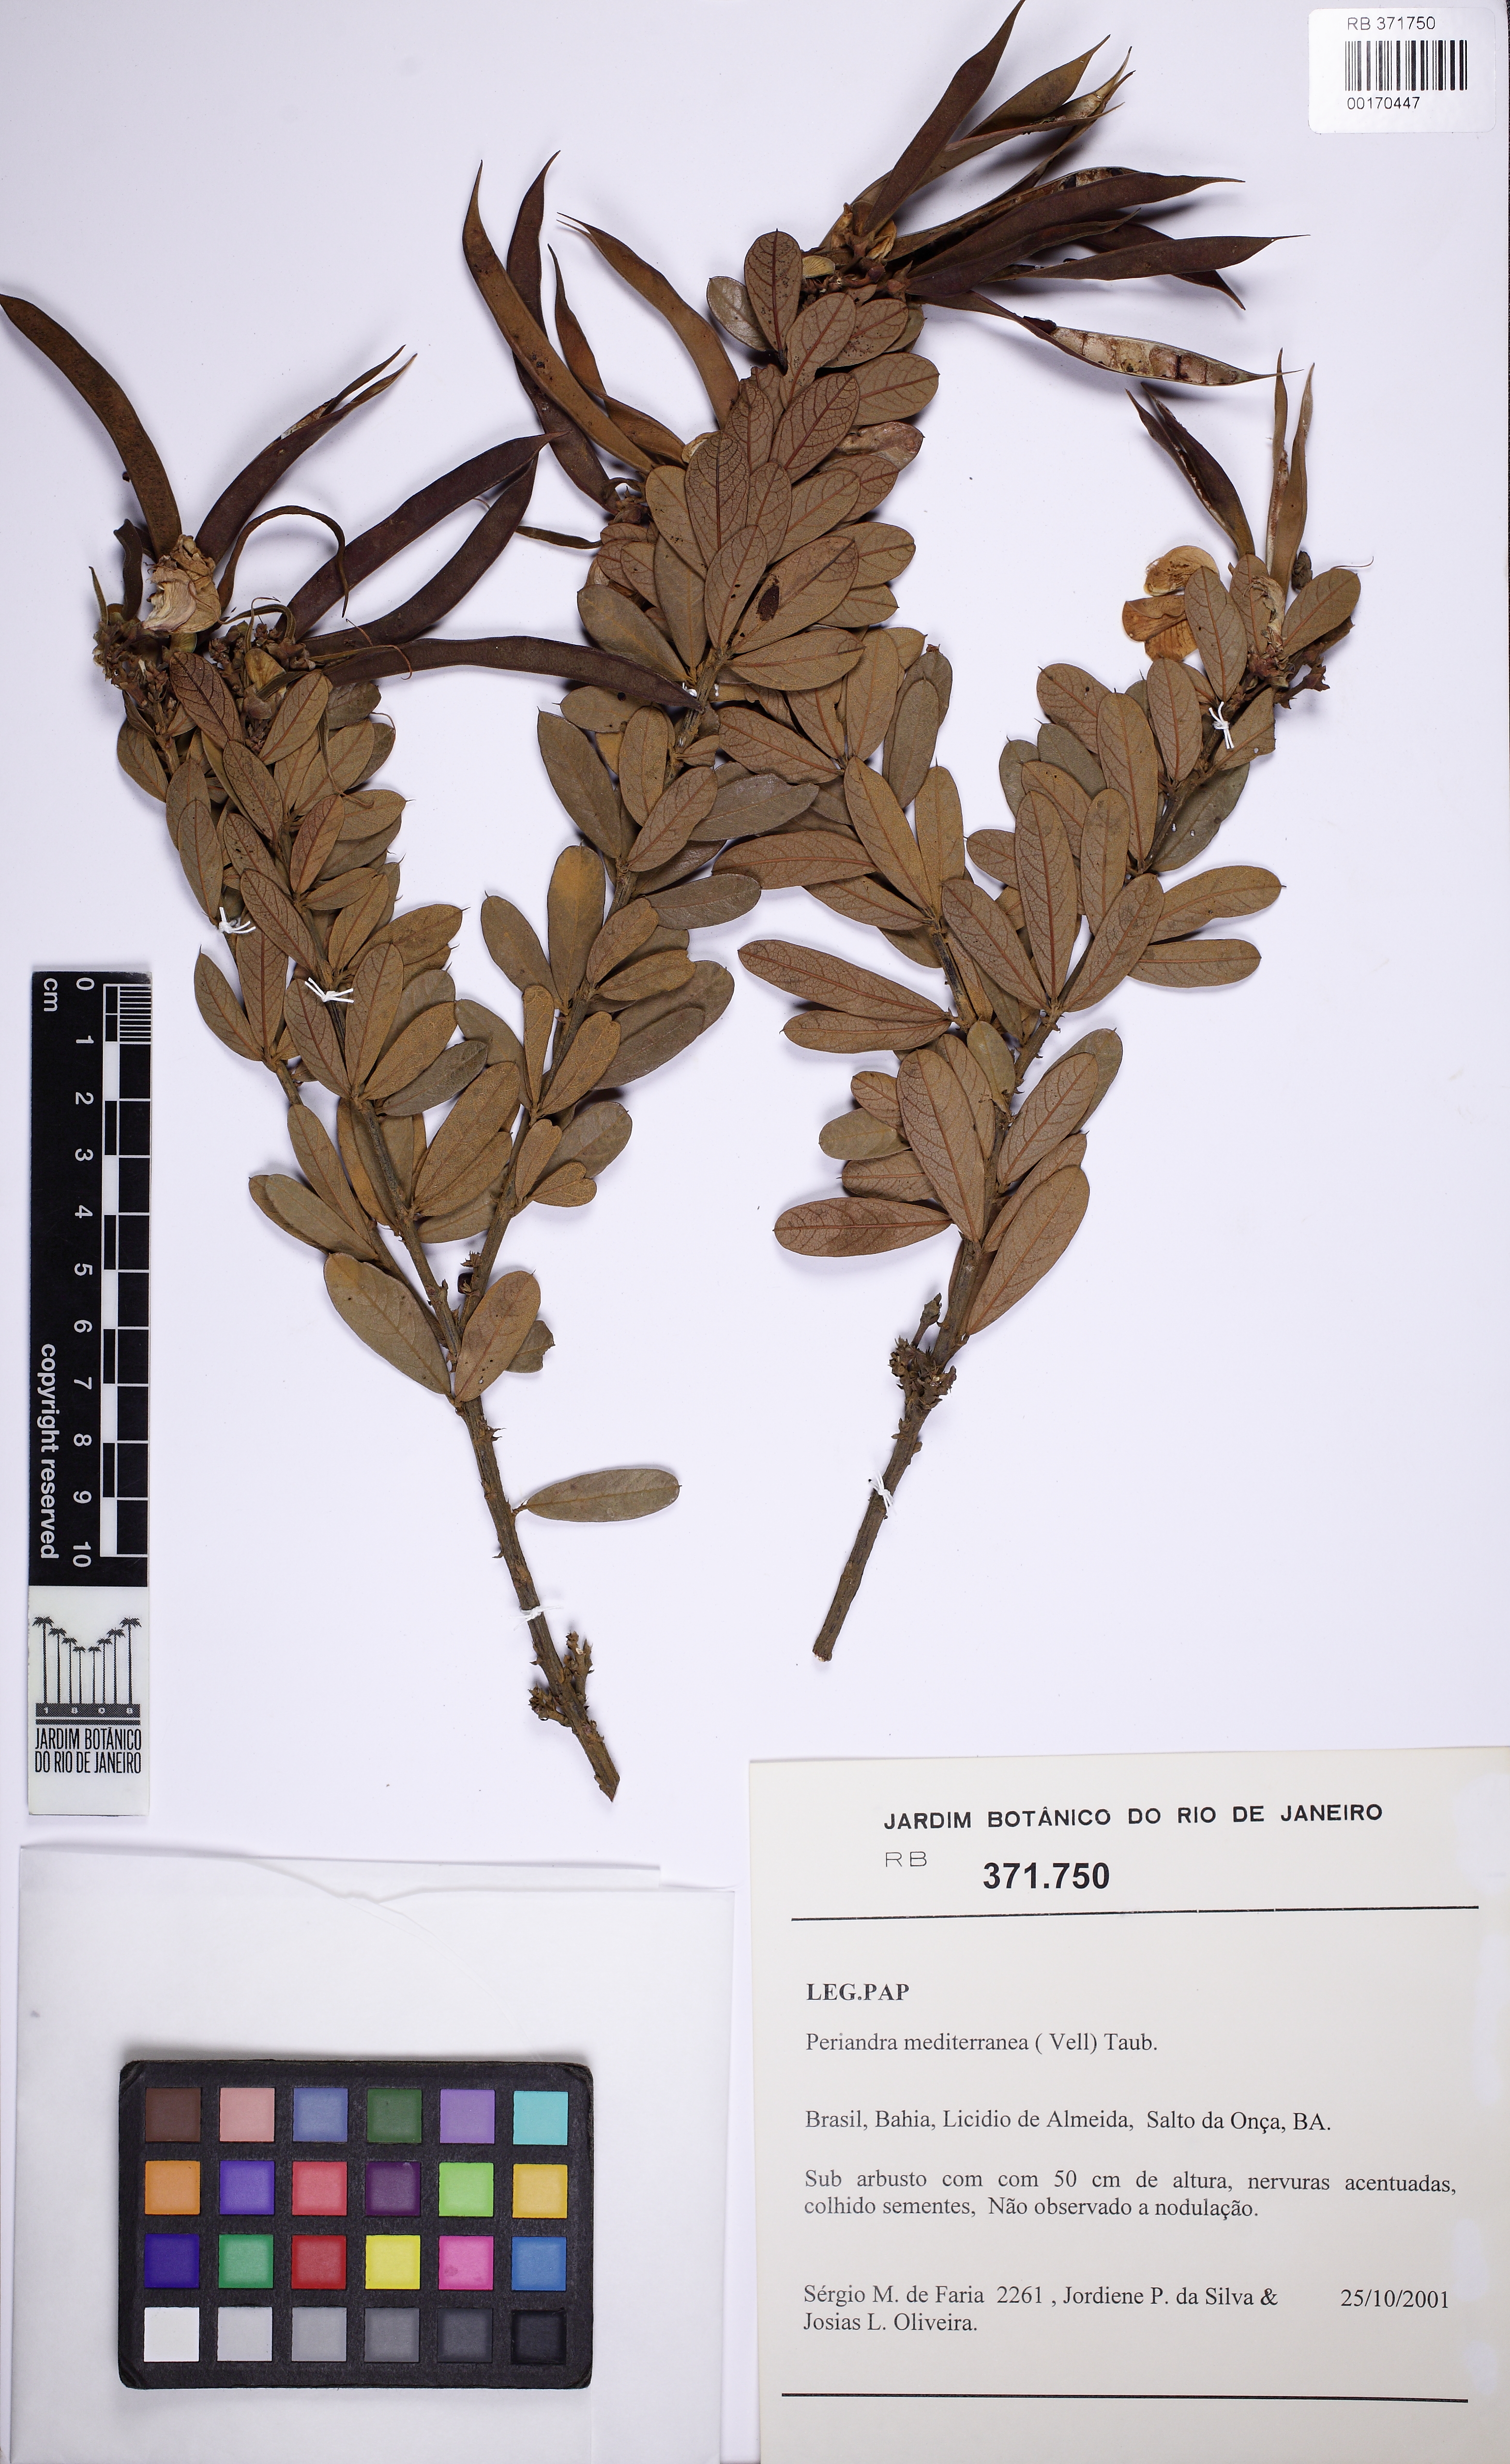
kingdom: Plantae
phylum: Tracheophyta
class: Magnoliopsida
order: Fabales
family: Fabaceae
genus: Periandra
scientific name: Periandra mediterranea
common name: Brazilian licorice
